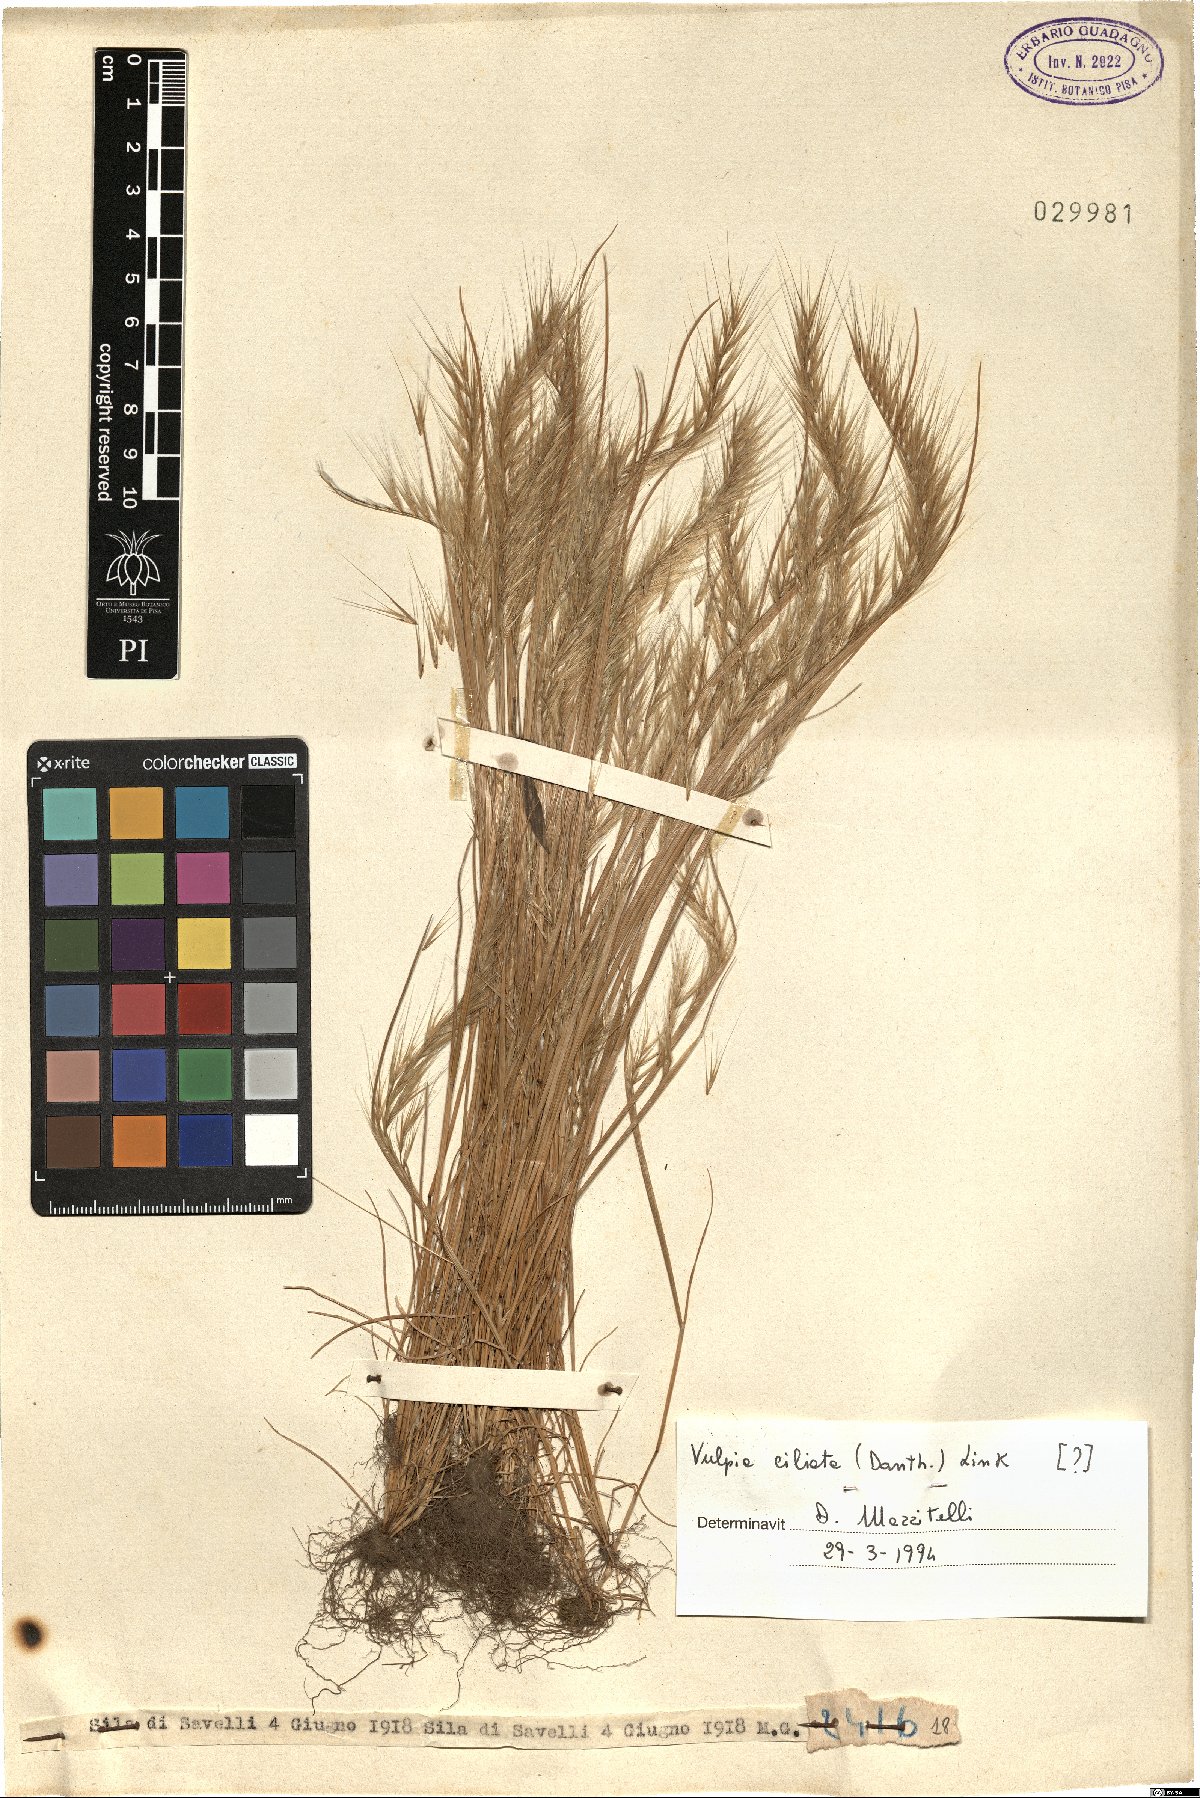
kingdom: Plantae
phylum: Tracheophyta
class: Liliopsida
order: Poales
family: Poaceae
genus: Festuca
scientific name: Festuca ambigua
